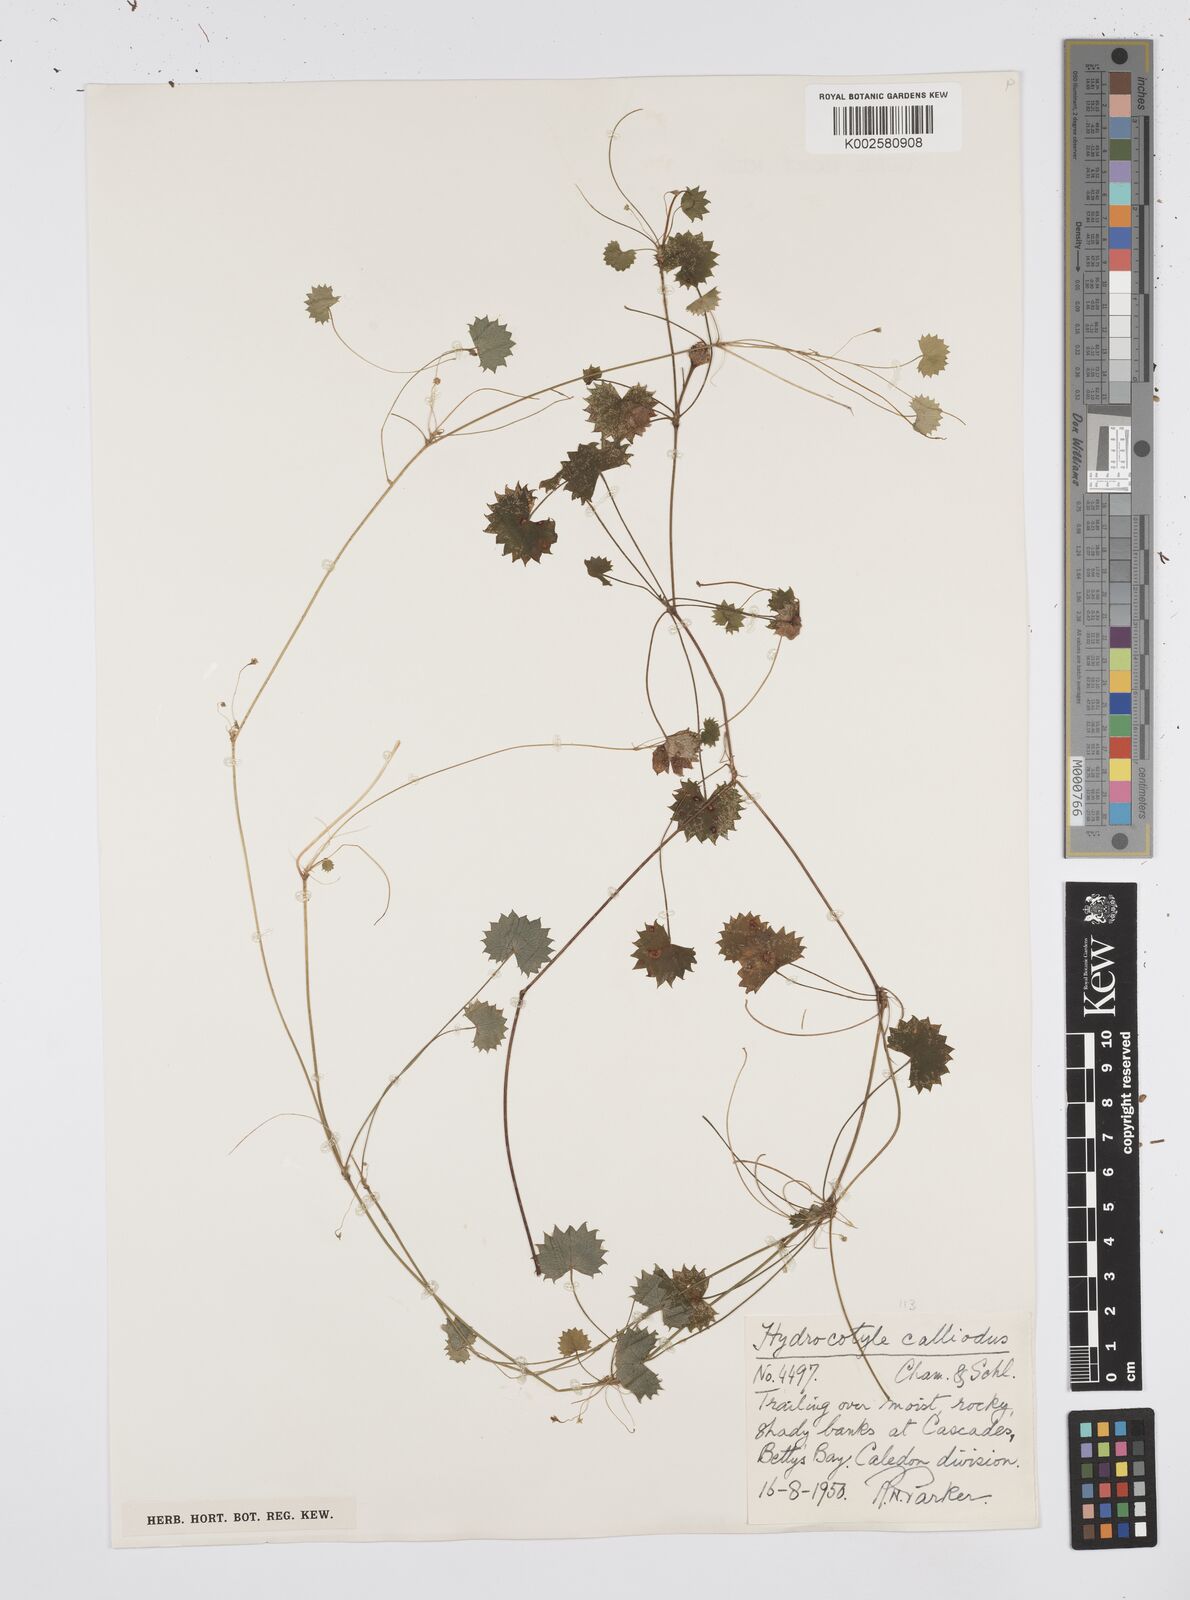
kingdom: Plantae
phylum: Tracheophyta
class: Magnoliopsida
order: Apiales
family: Apiaceae
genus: Centella
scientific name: Centella
